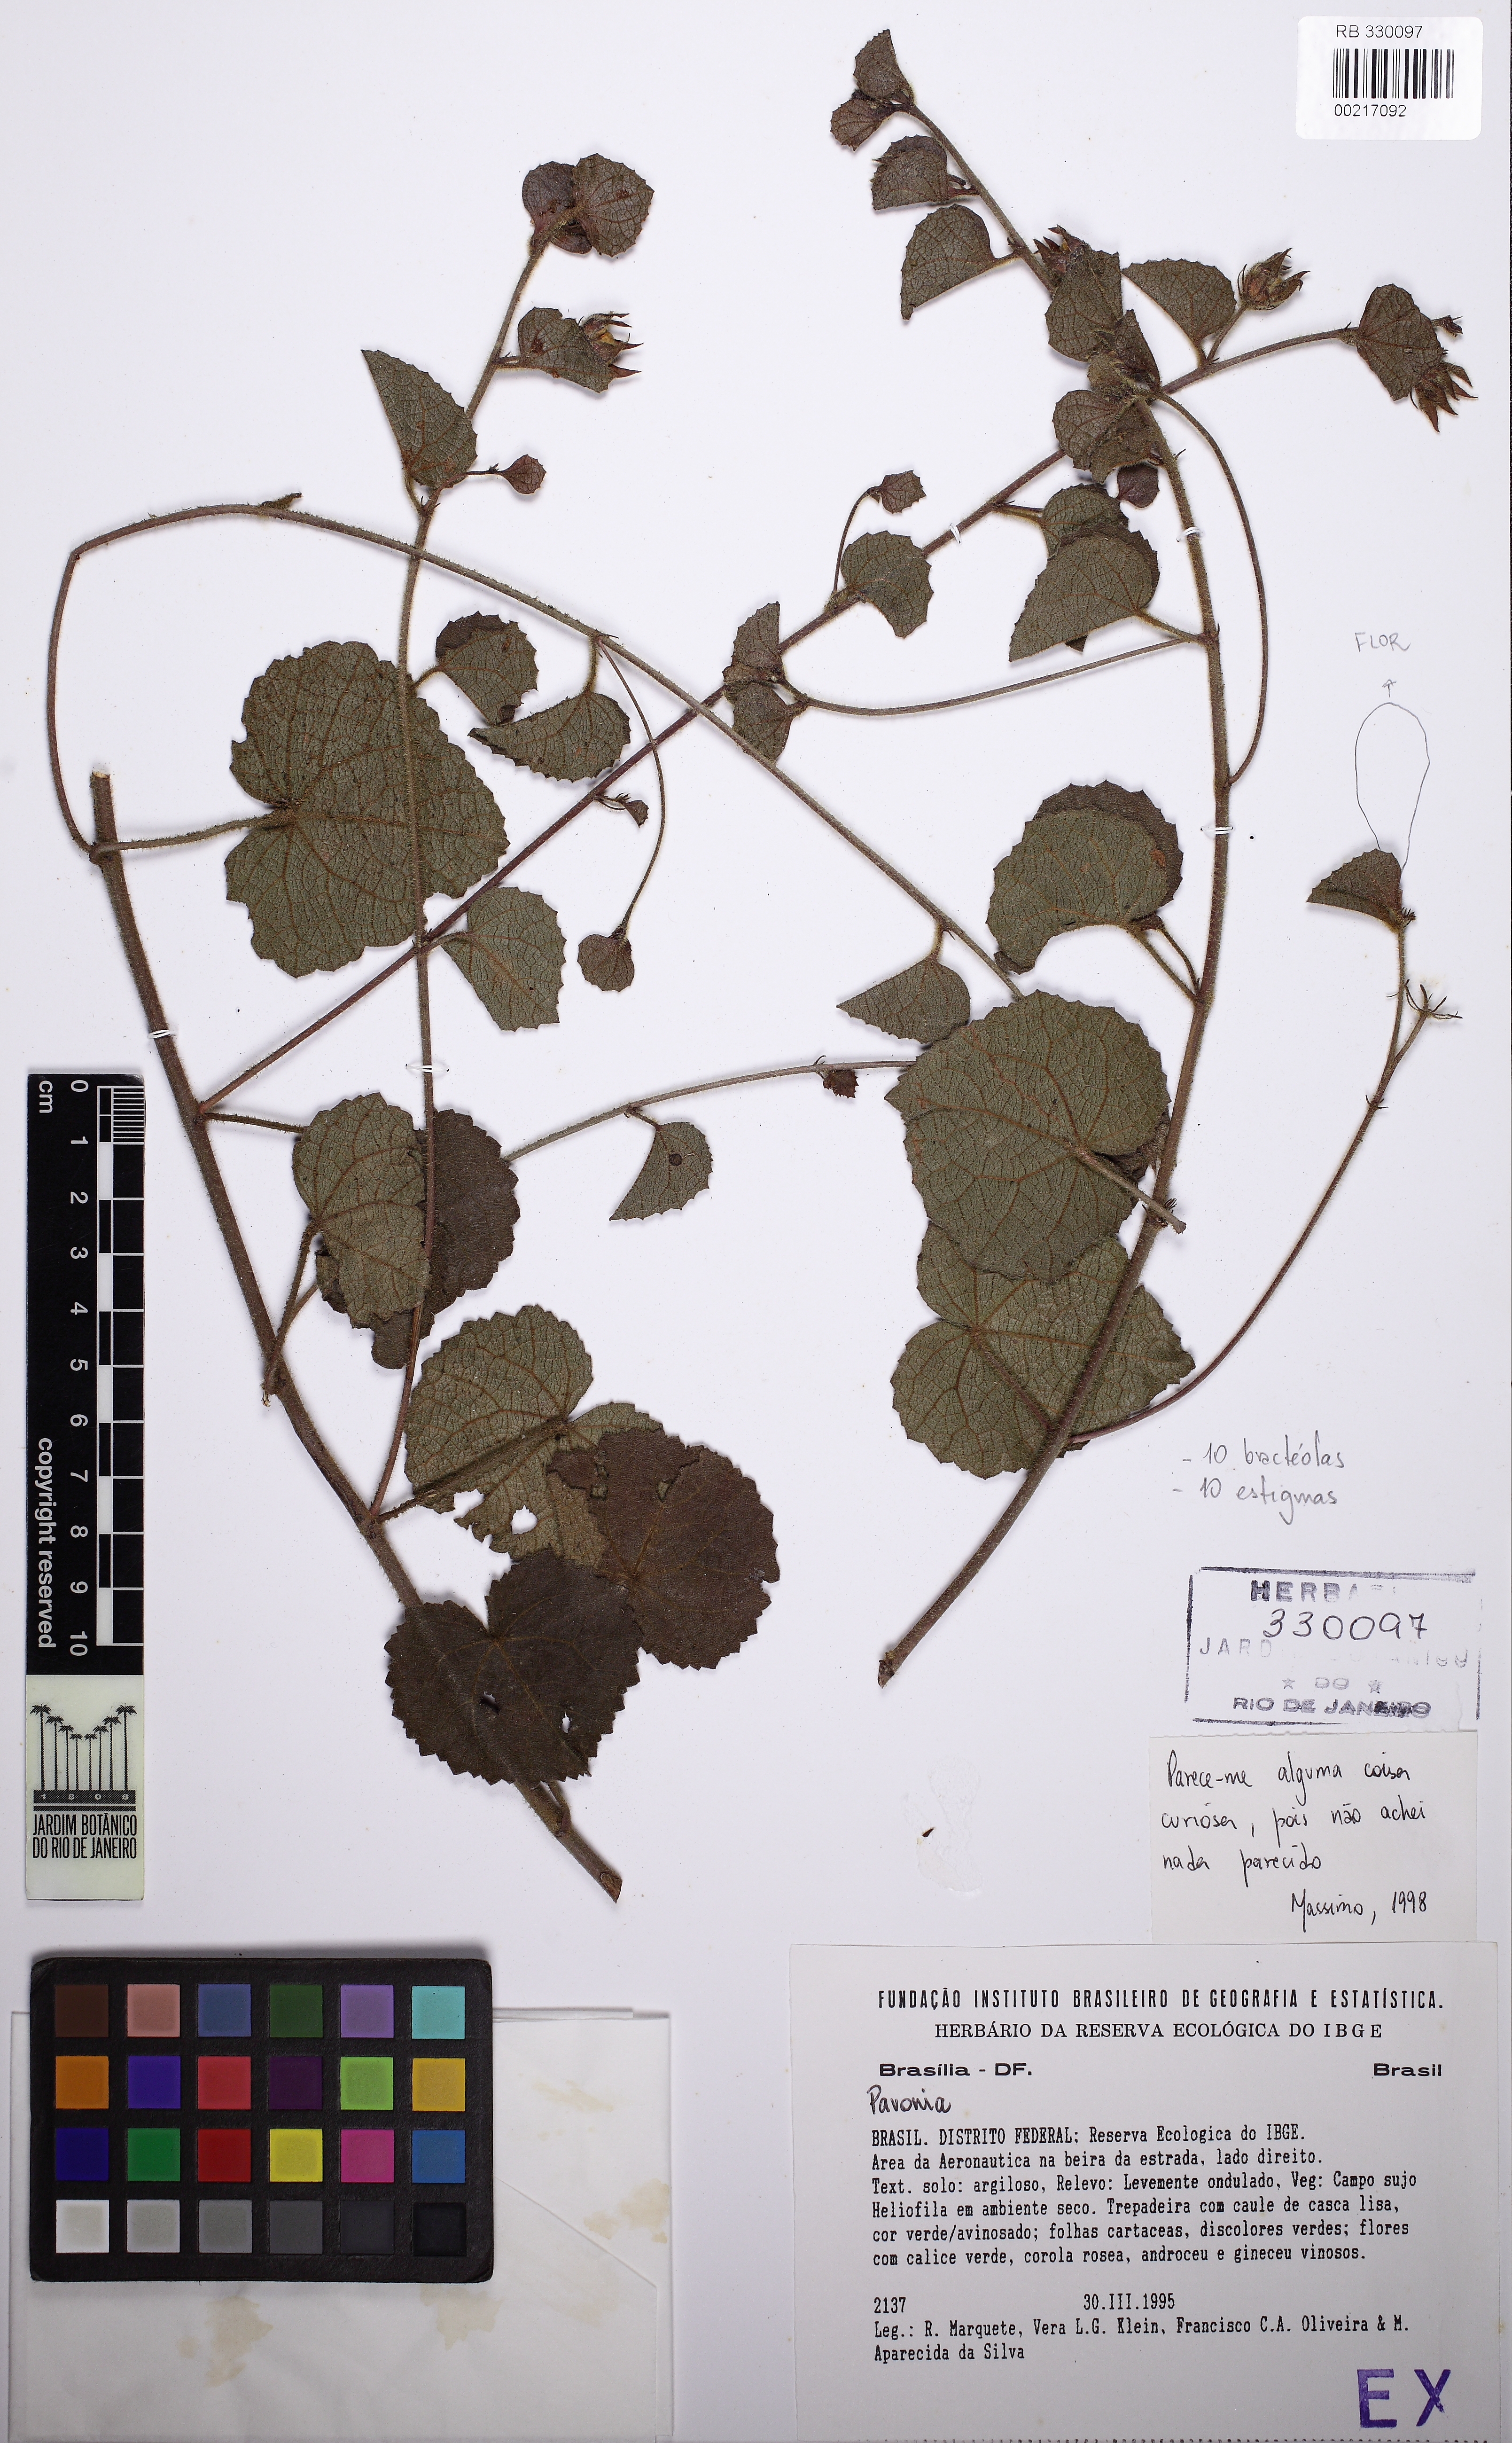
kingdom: Plantae
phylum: Tracheophyta
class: Magnoliopsida
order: Malvales
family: Malvaceae
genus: Pavonia
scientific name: Pavonia
